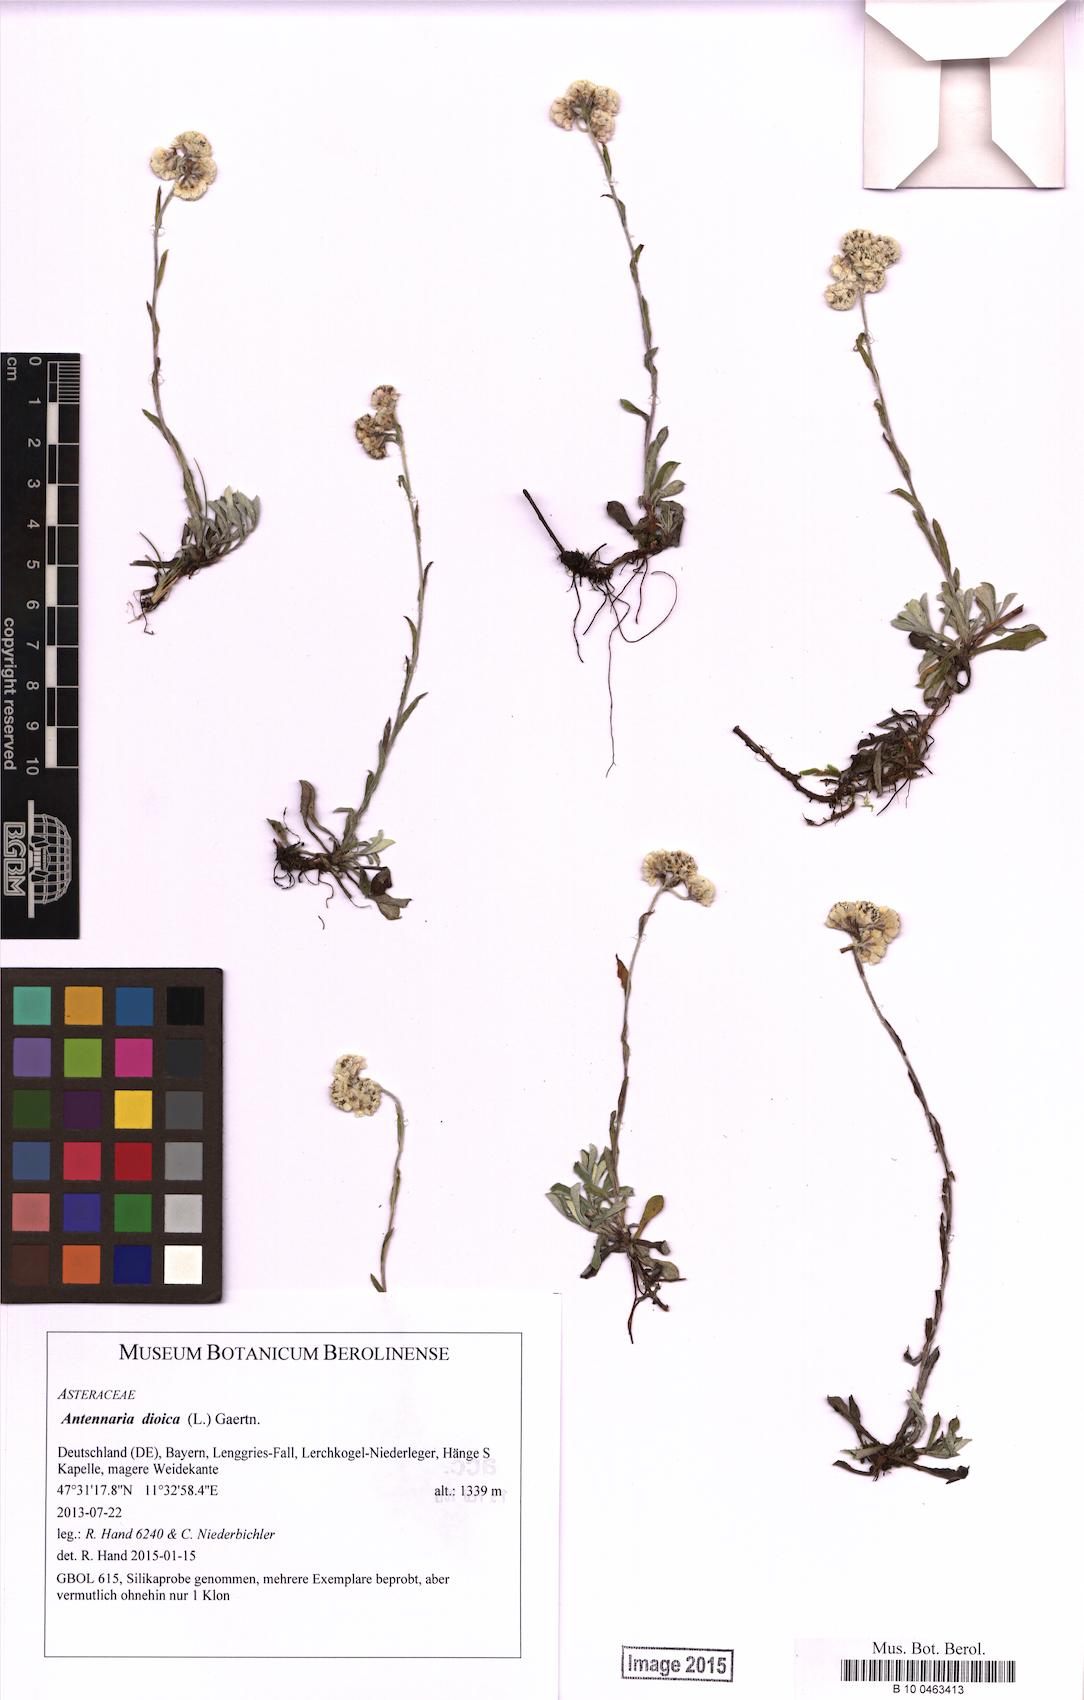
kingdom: Plantae
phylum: Tracheophyta
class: Magnoliopsida
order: Asterales
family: Asteraceae
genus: Antennaria
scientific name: Antennaria dioica
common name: Mountain everlasting
